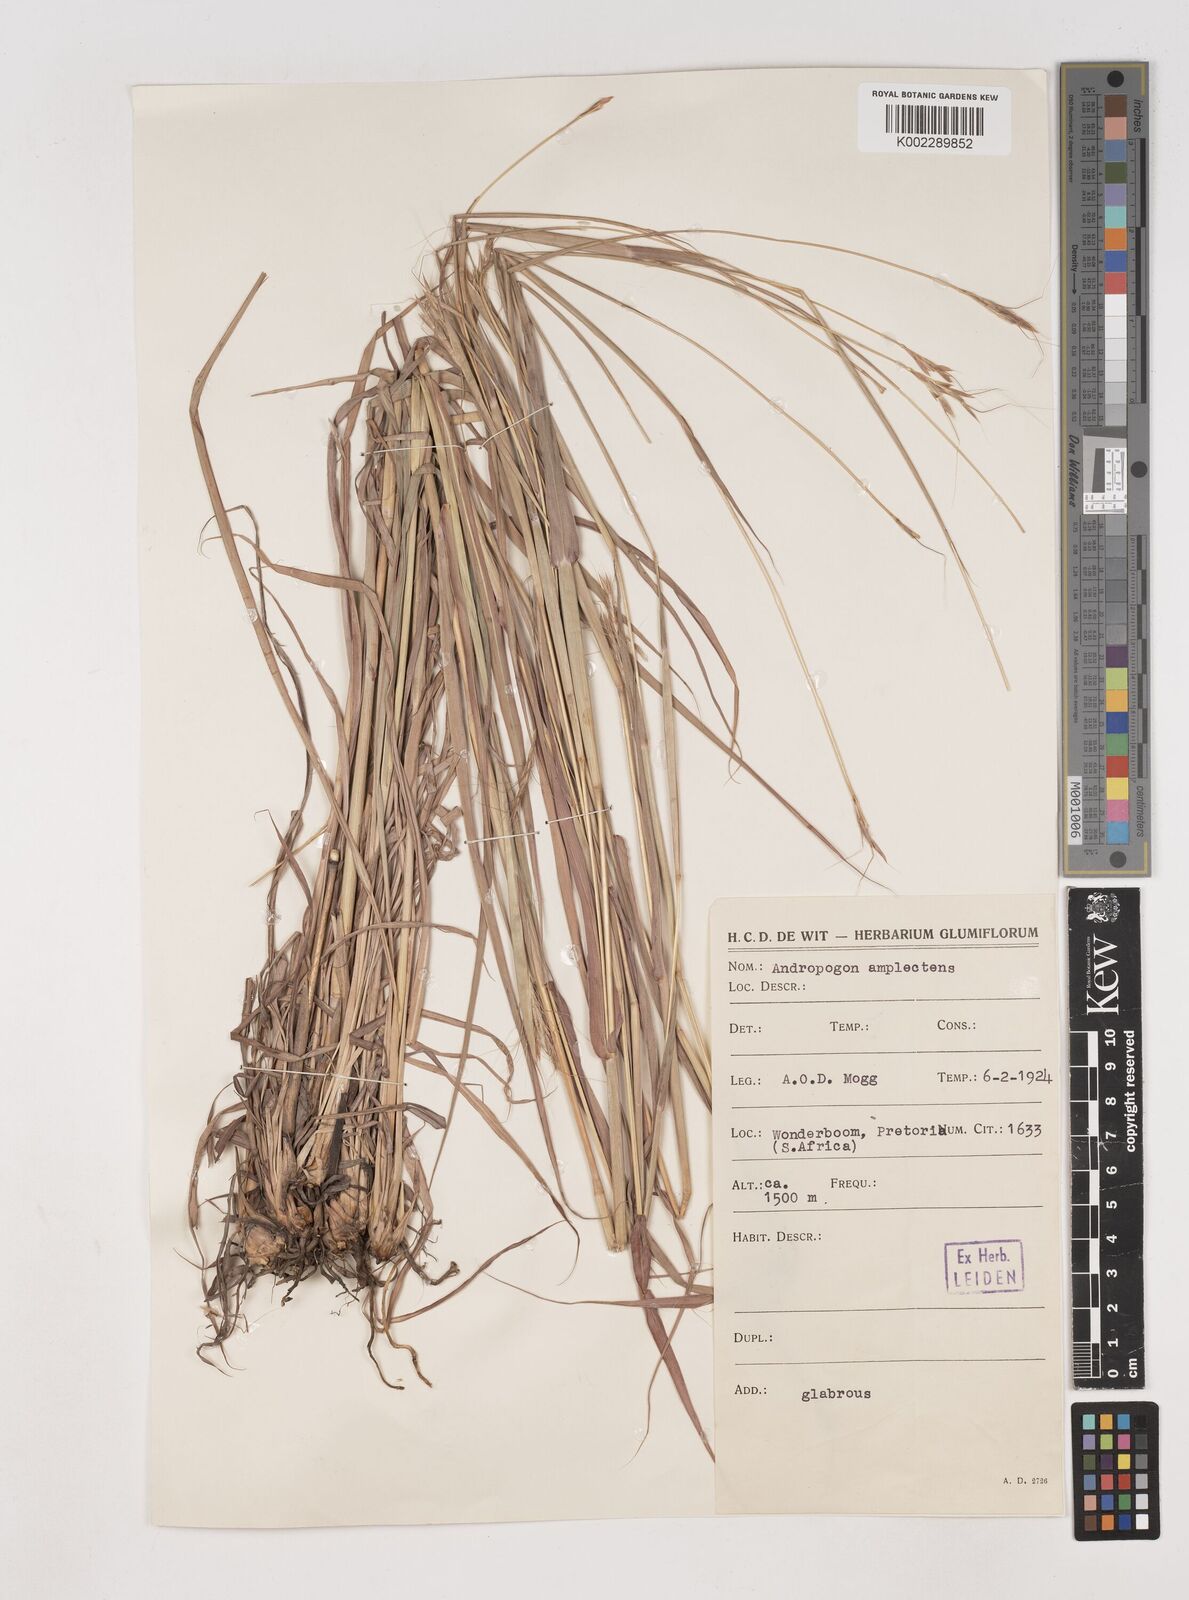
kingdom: Plantae
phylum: Tracheophyta
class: Liliopsida
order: Poales
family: Poaceae
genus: Diheteropogon
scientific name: Diheteropogon amplectens
